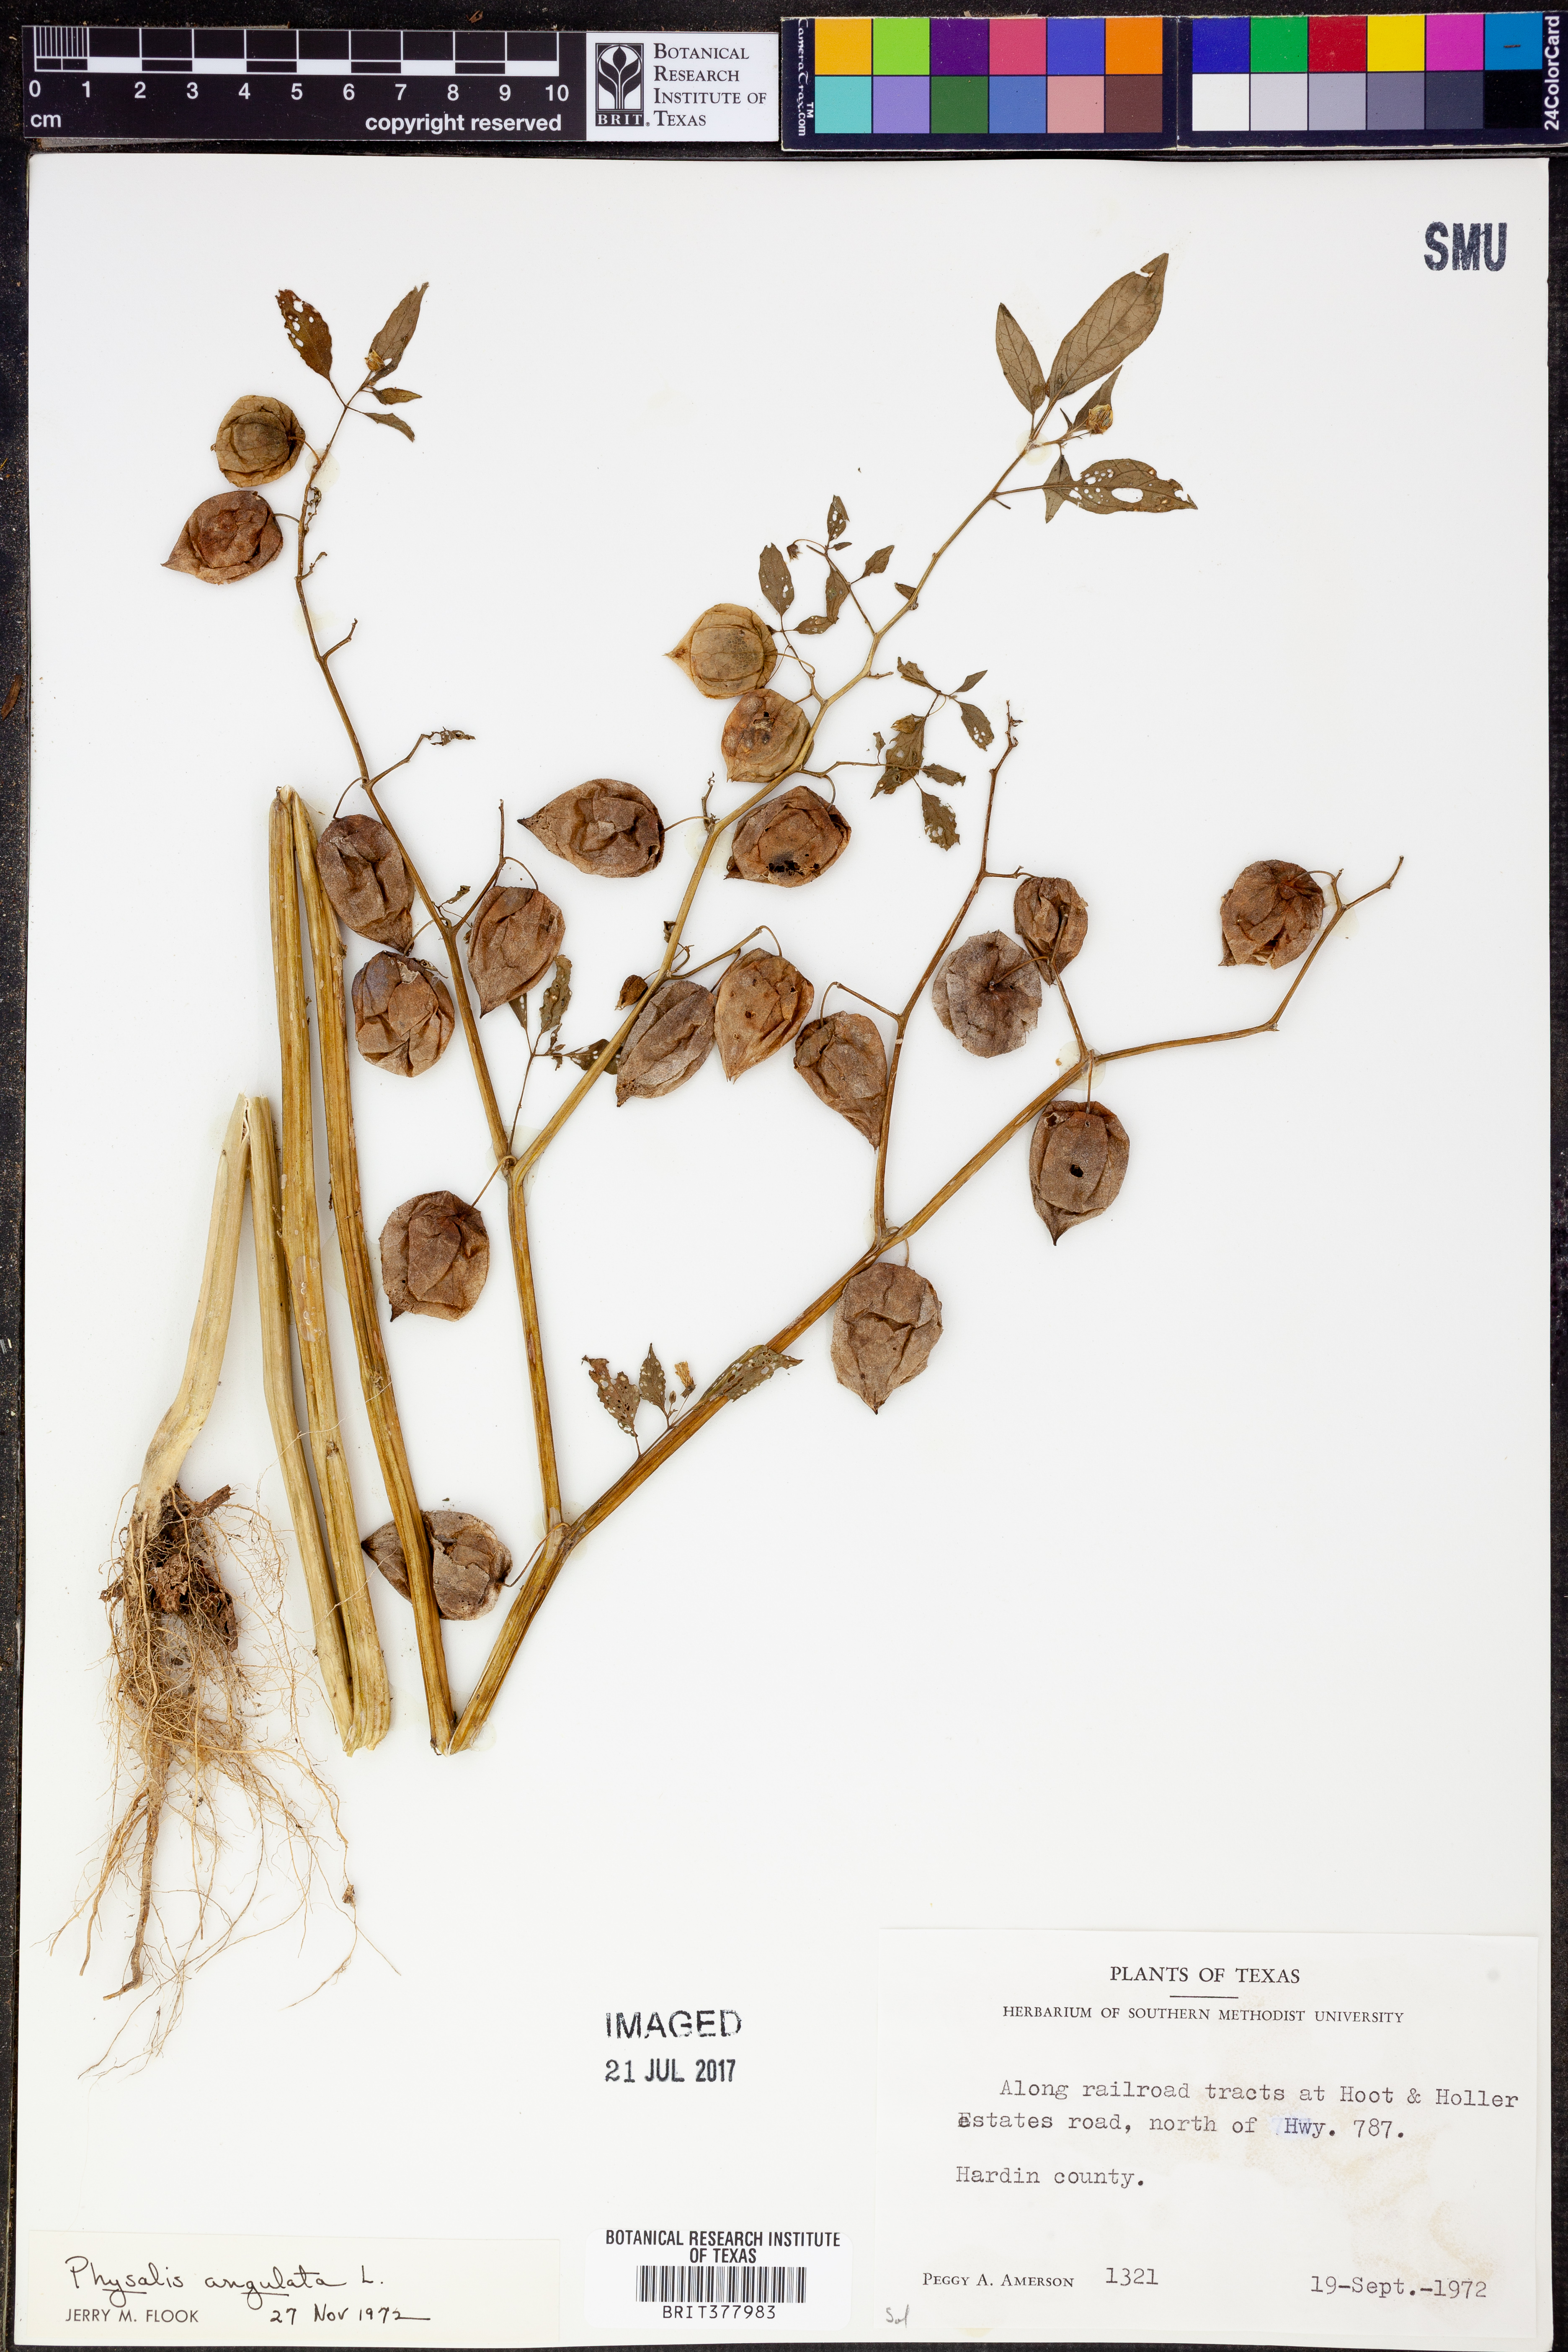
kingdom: Plantae
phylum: Tracheophyta
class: Magnoliopsida
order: Solanales
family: Solanaceae
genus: Physalis
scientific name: Physalis angulata
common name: Angular winter-cherry
